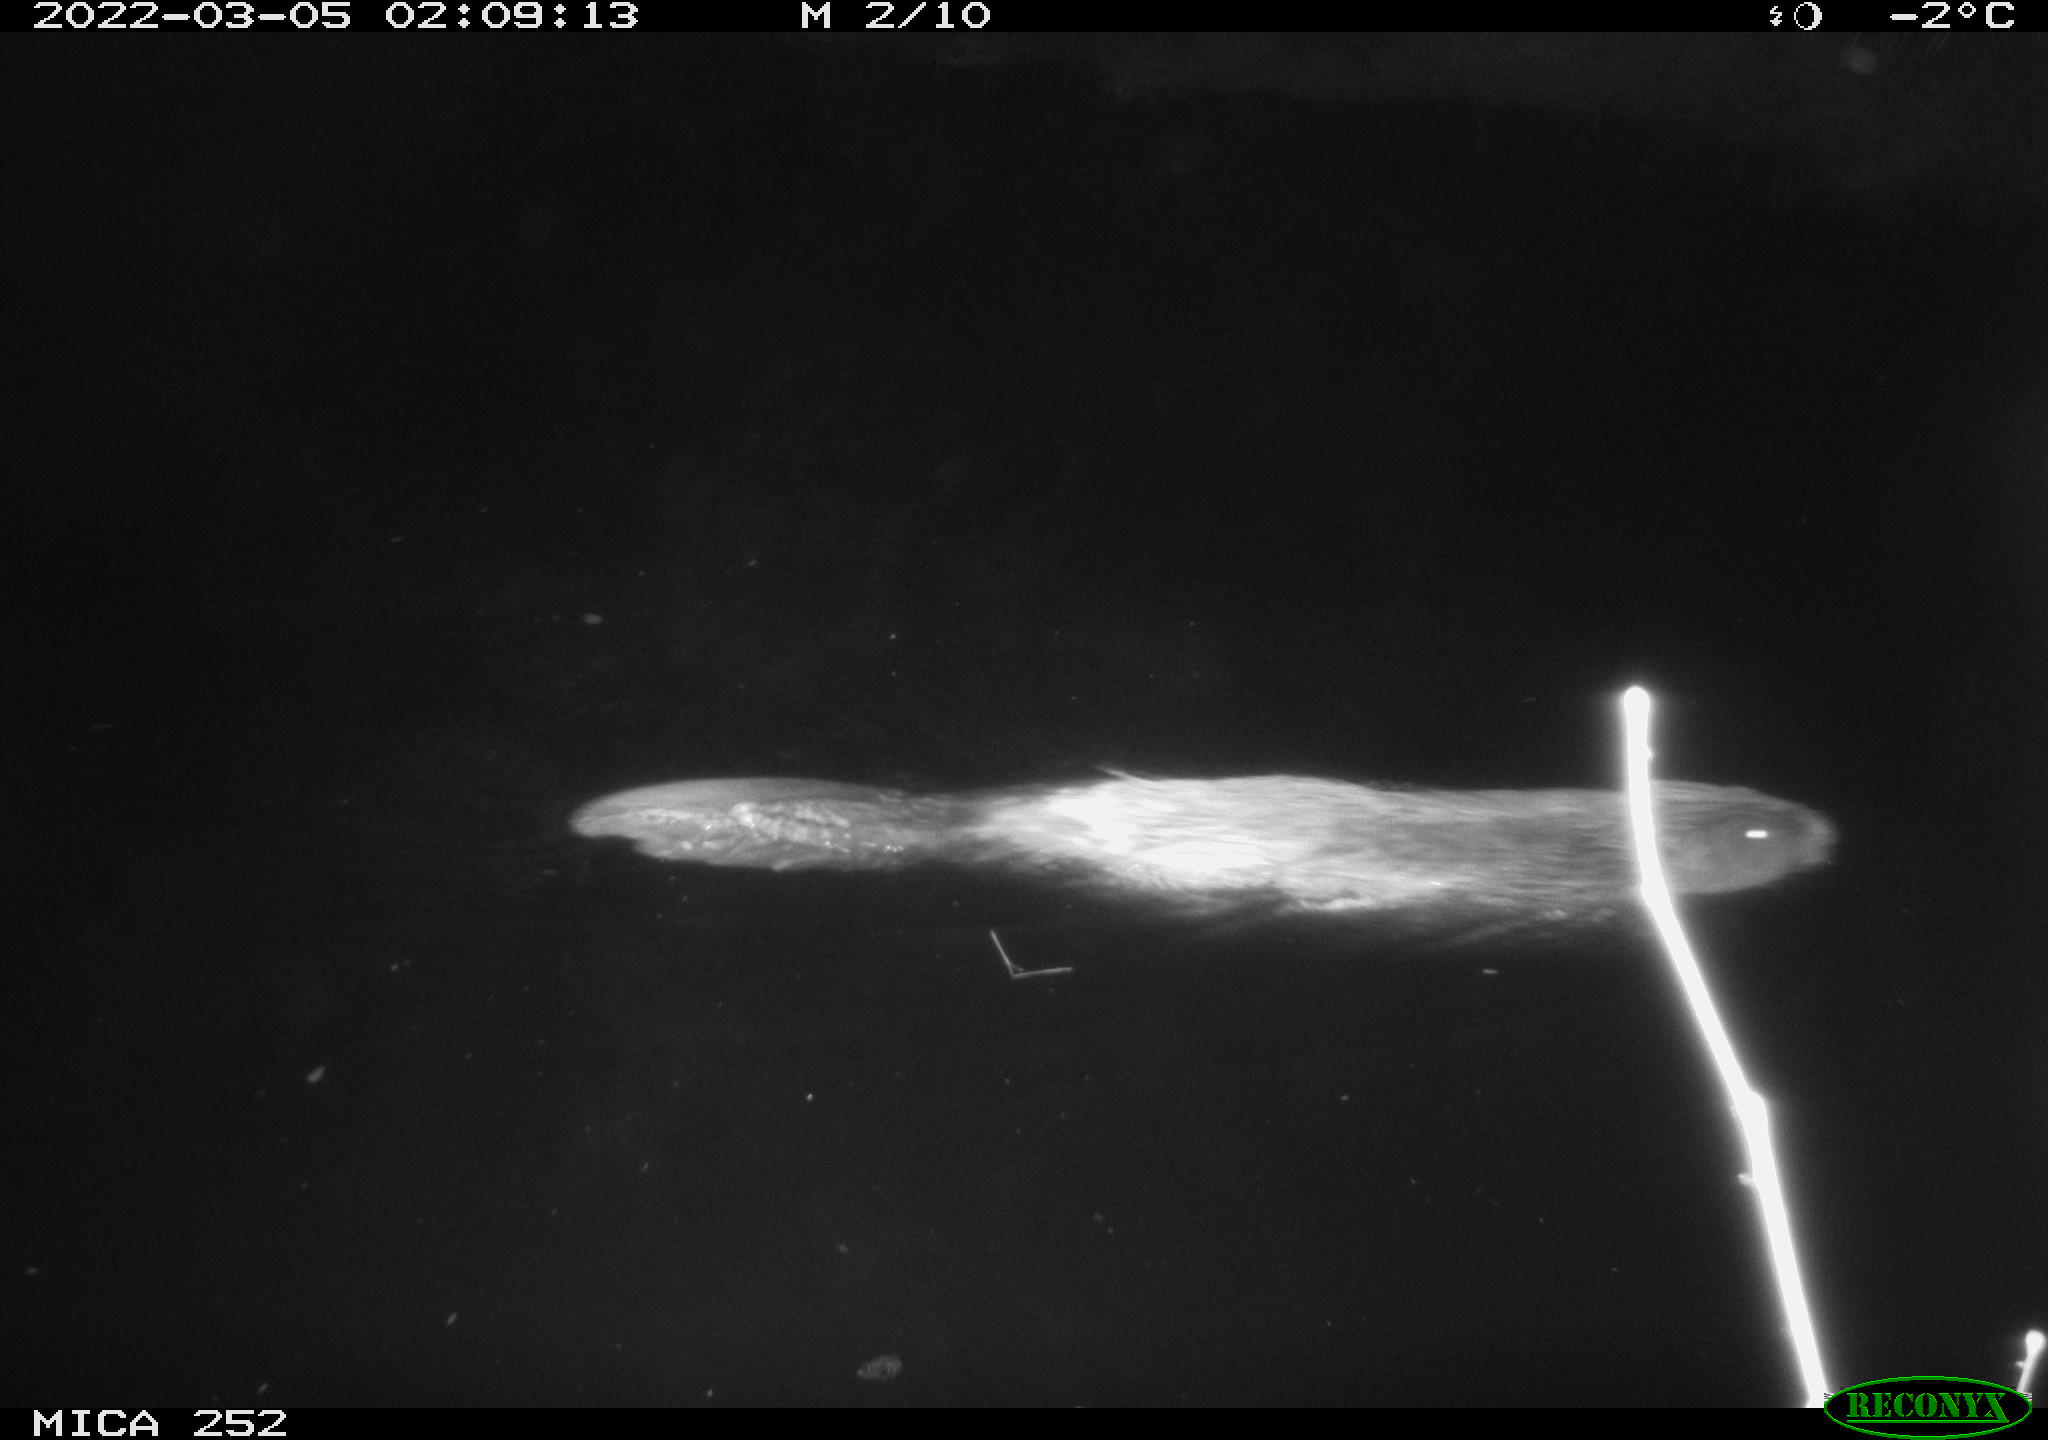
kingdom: Animalia
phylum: Chordata
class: Mammalia
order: Rodentia
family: Castoridae
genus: Castor
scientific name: Castor fiber
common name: Eurasian beaver
